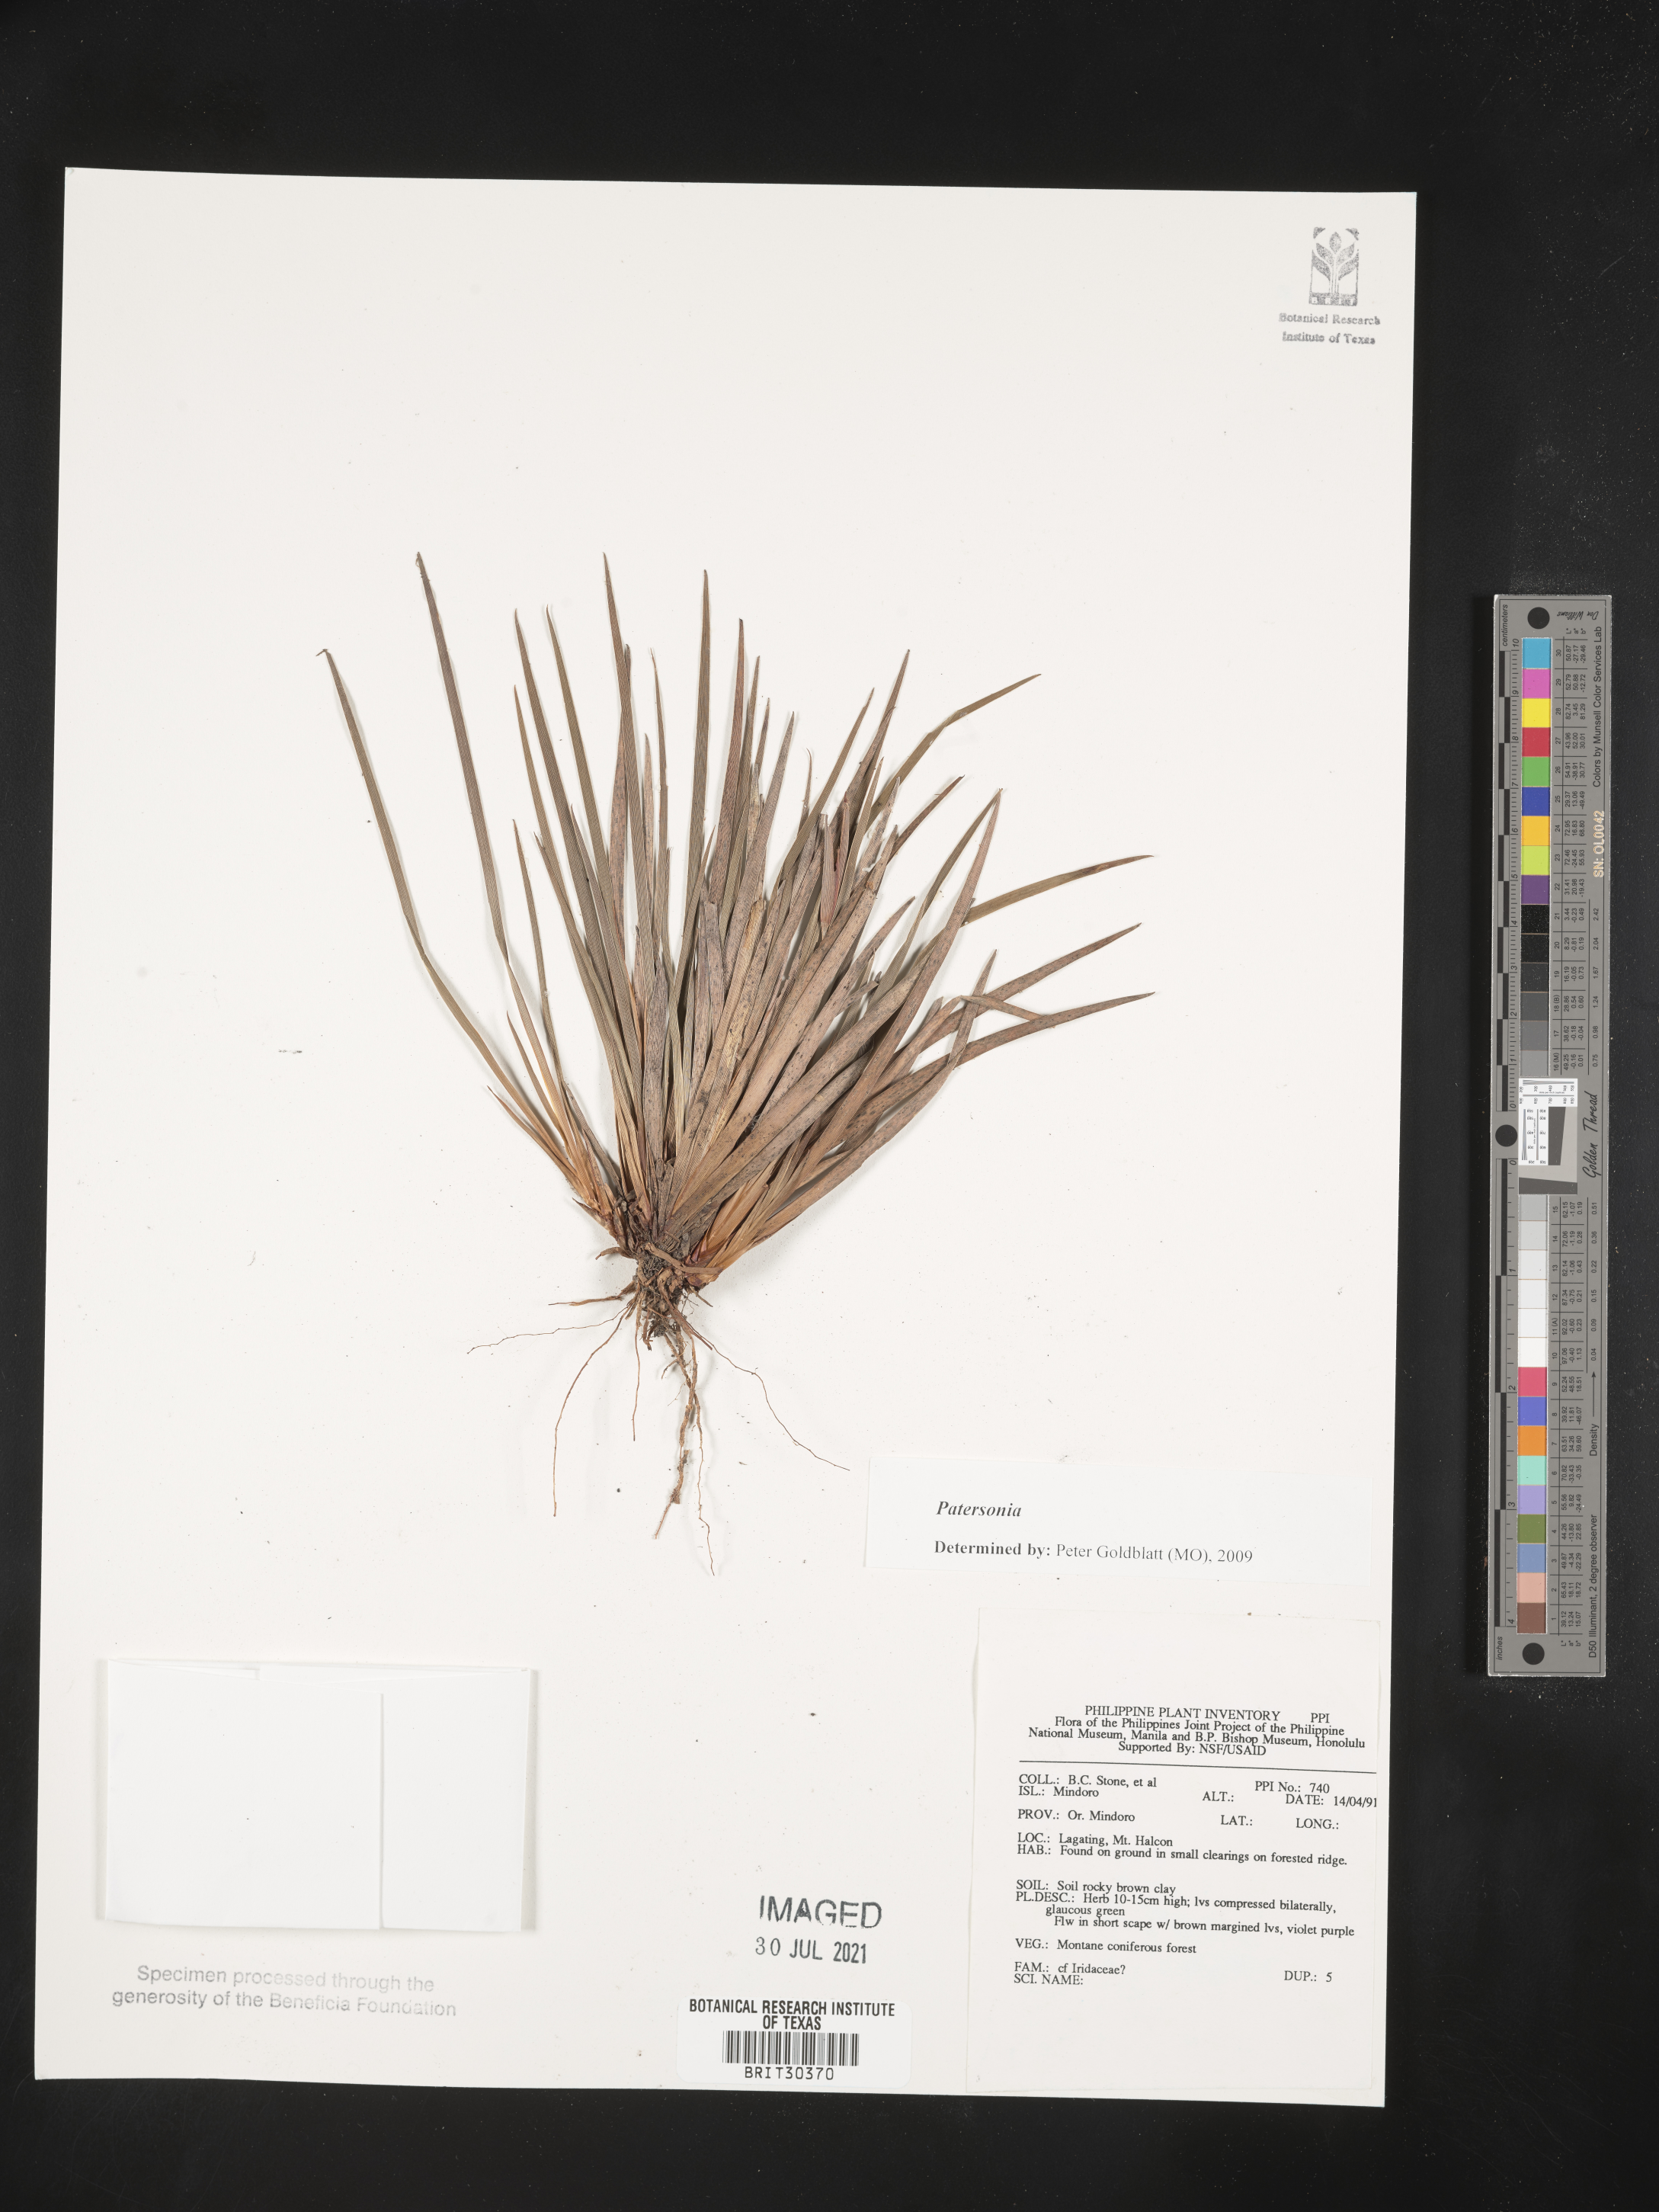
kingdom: Plantae
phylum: Tracheophyta
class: Liliopsida
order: Asparagales
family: Iridaceae
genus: Patersonia
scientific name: Patersonia
